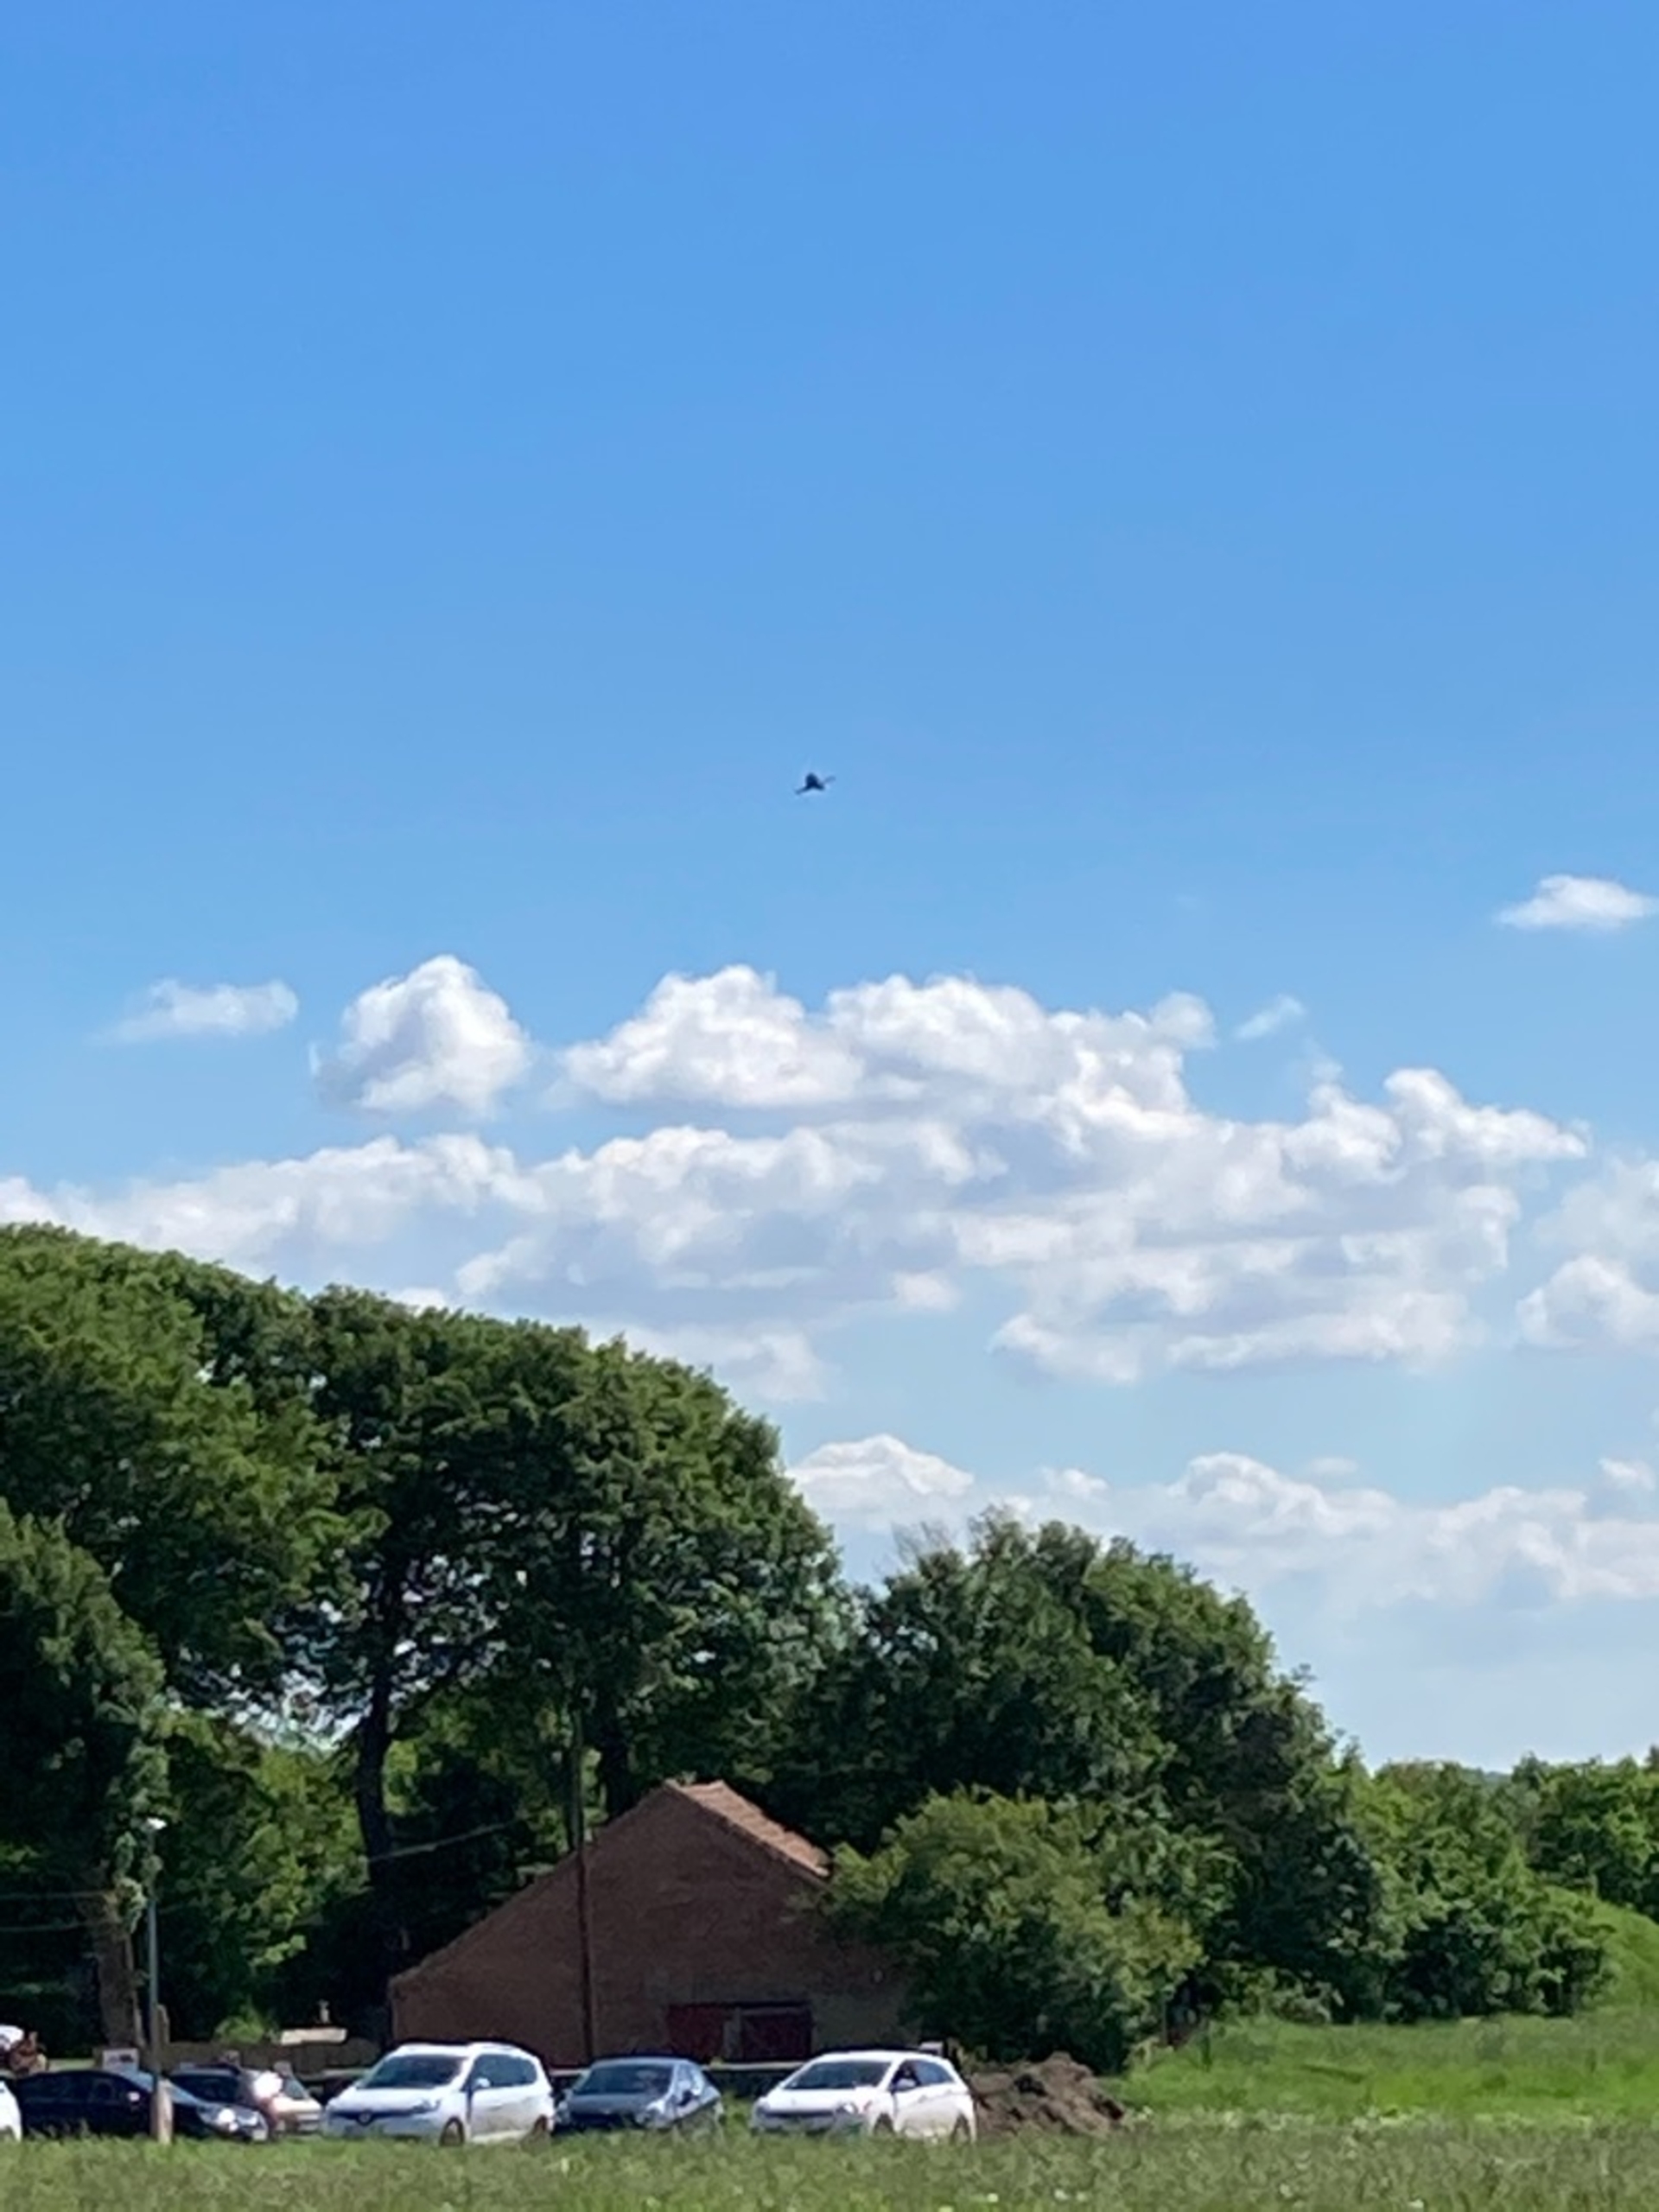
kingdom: Animalia
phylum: Chordata
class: Aves
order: Falconiformes
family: Falconidae
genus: Falco
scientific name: Falco tinnunculus
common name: Tårnfalk
